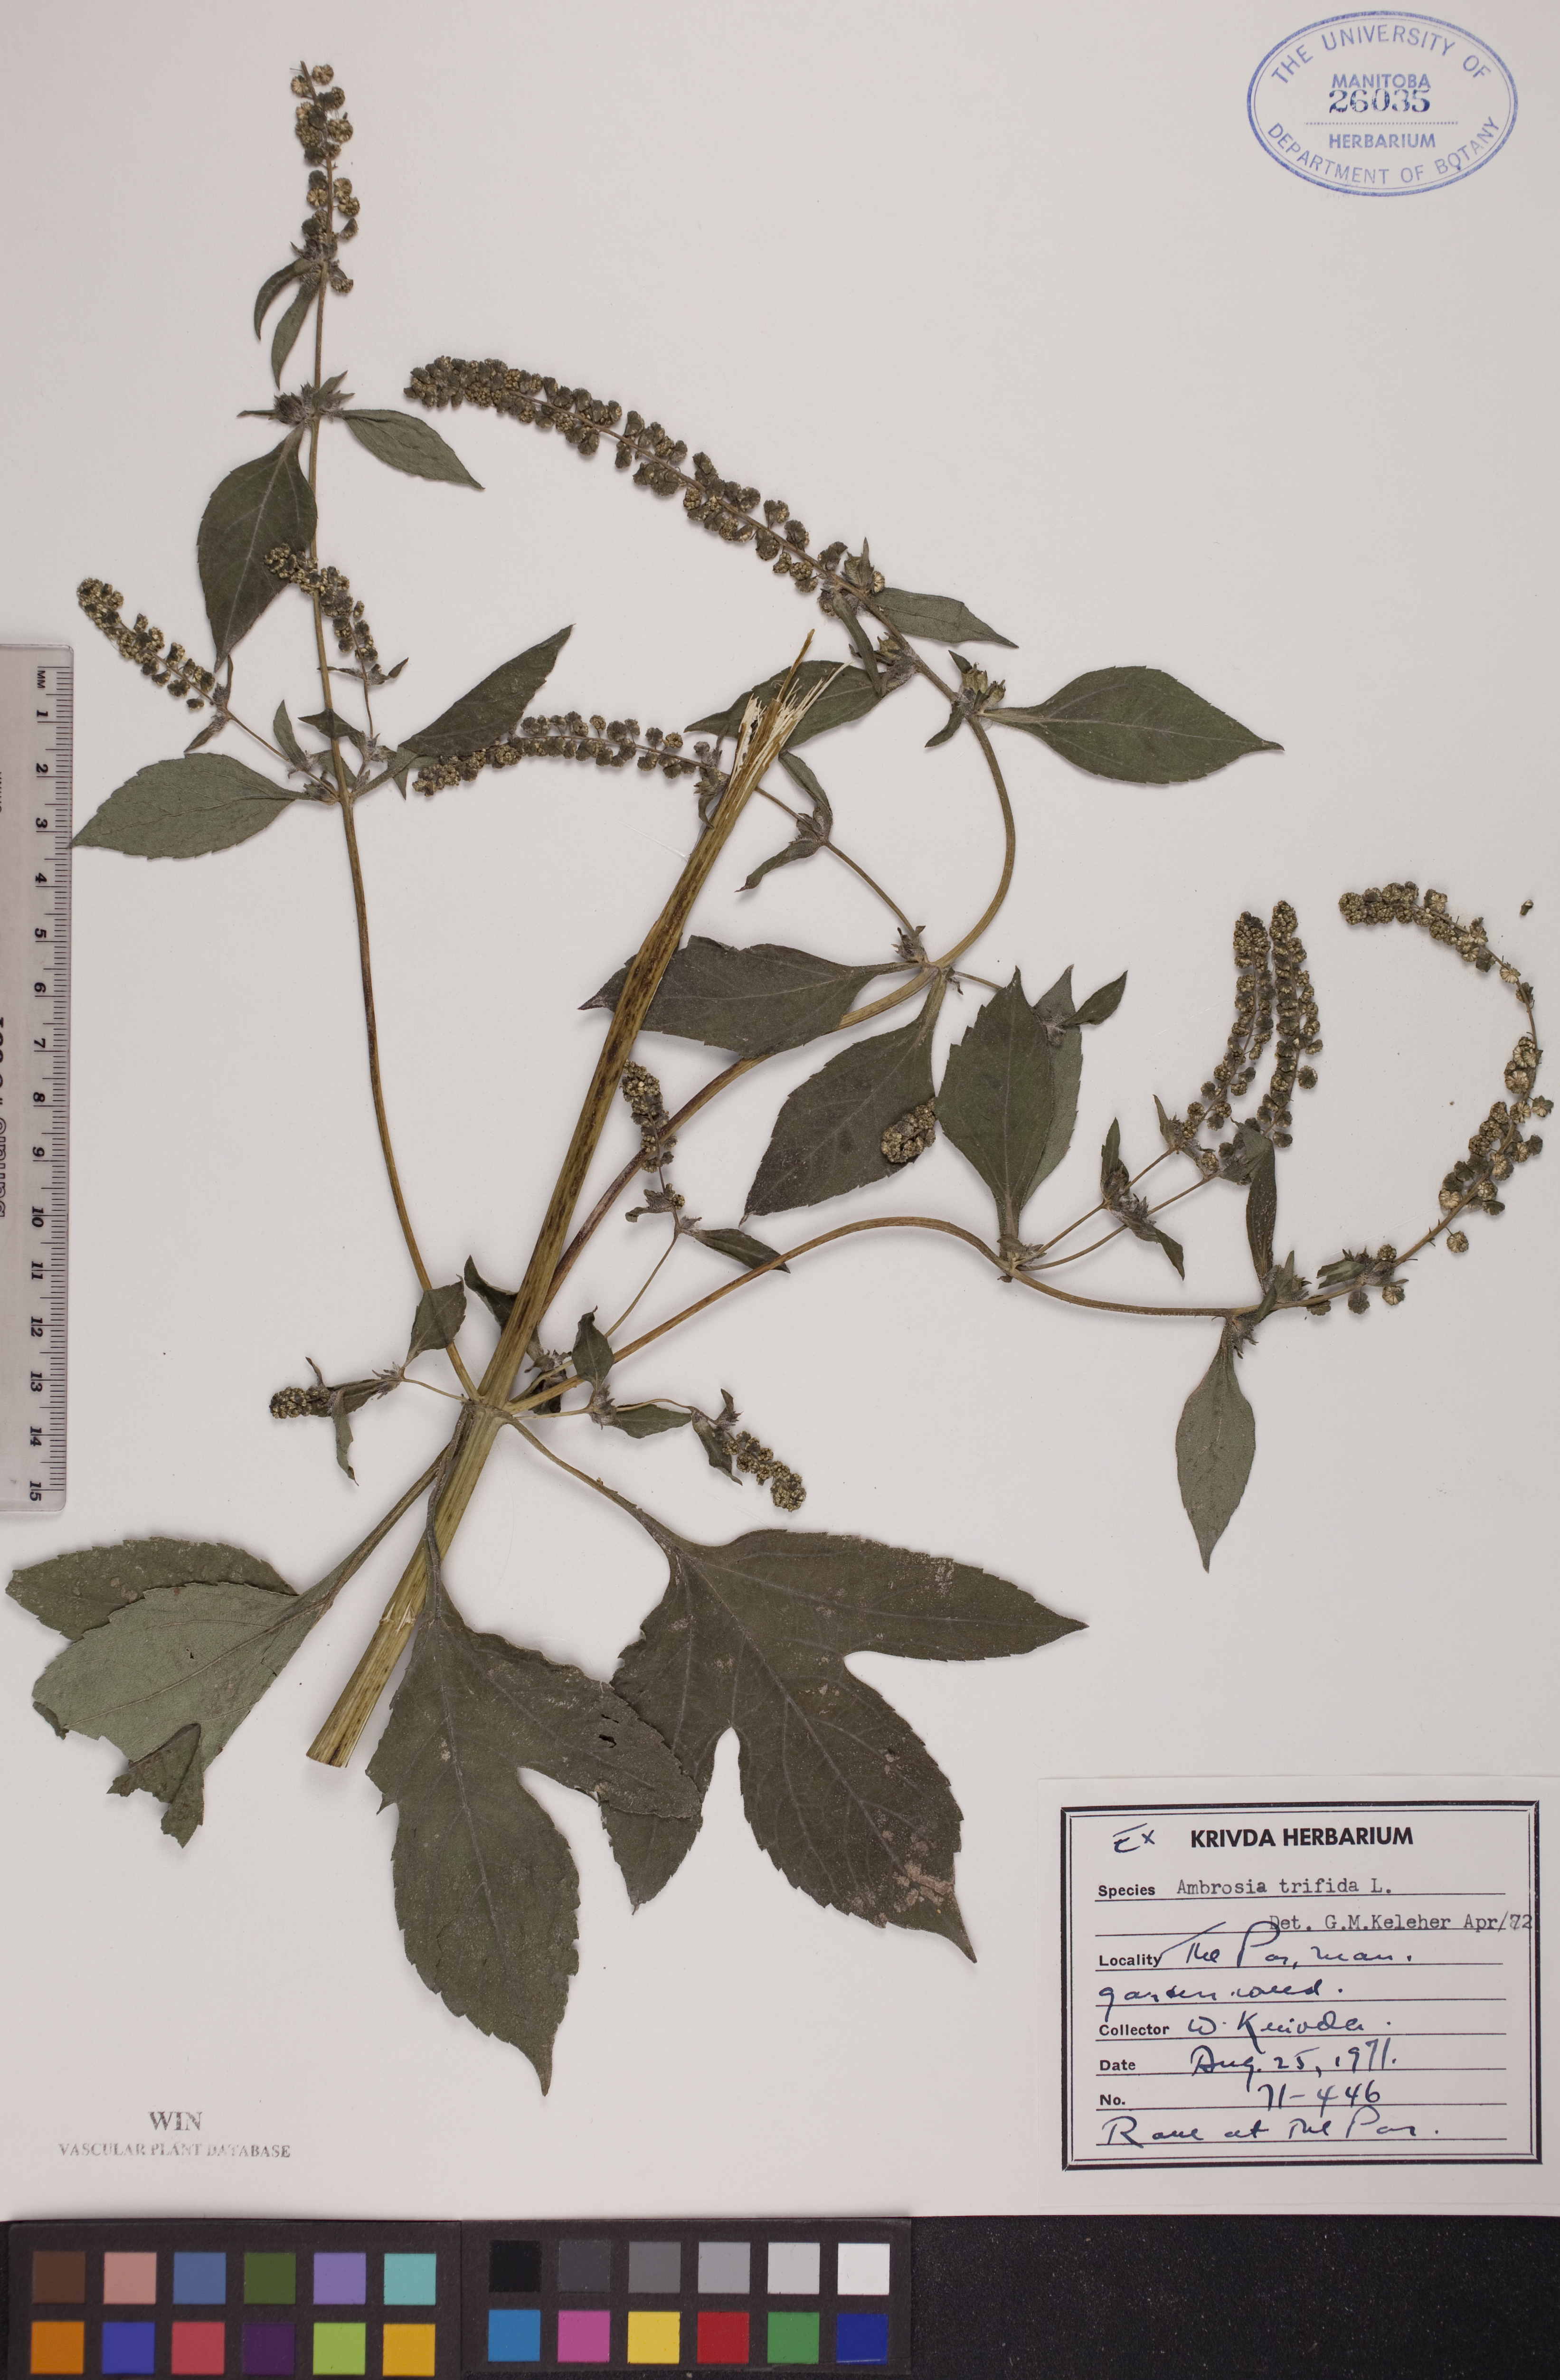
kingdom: Plantae
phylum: Tracheophyta
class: Magnoliopsida
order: Asterales
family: Asteraceae
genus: Ambrosia
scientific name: Ambrosia trifida
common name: Giant ragweed
